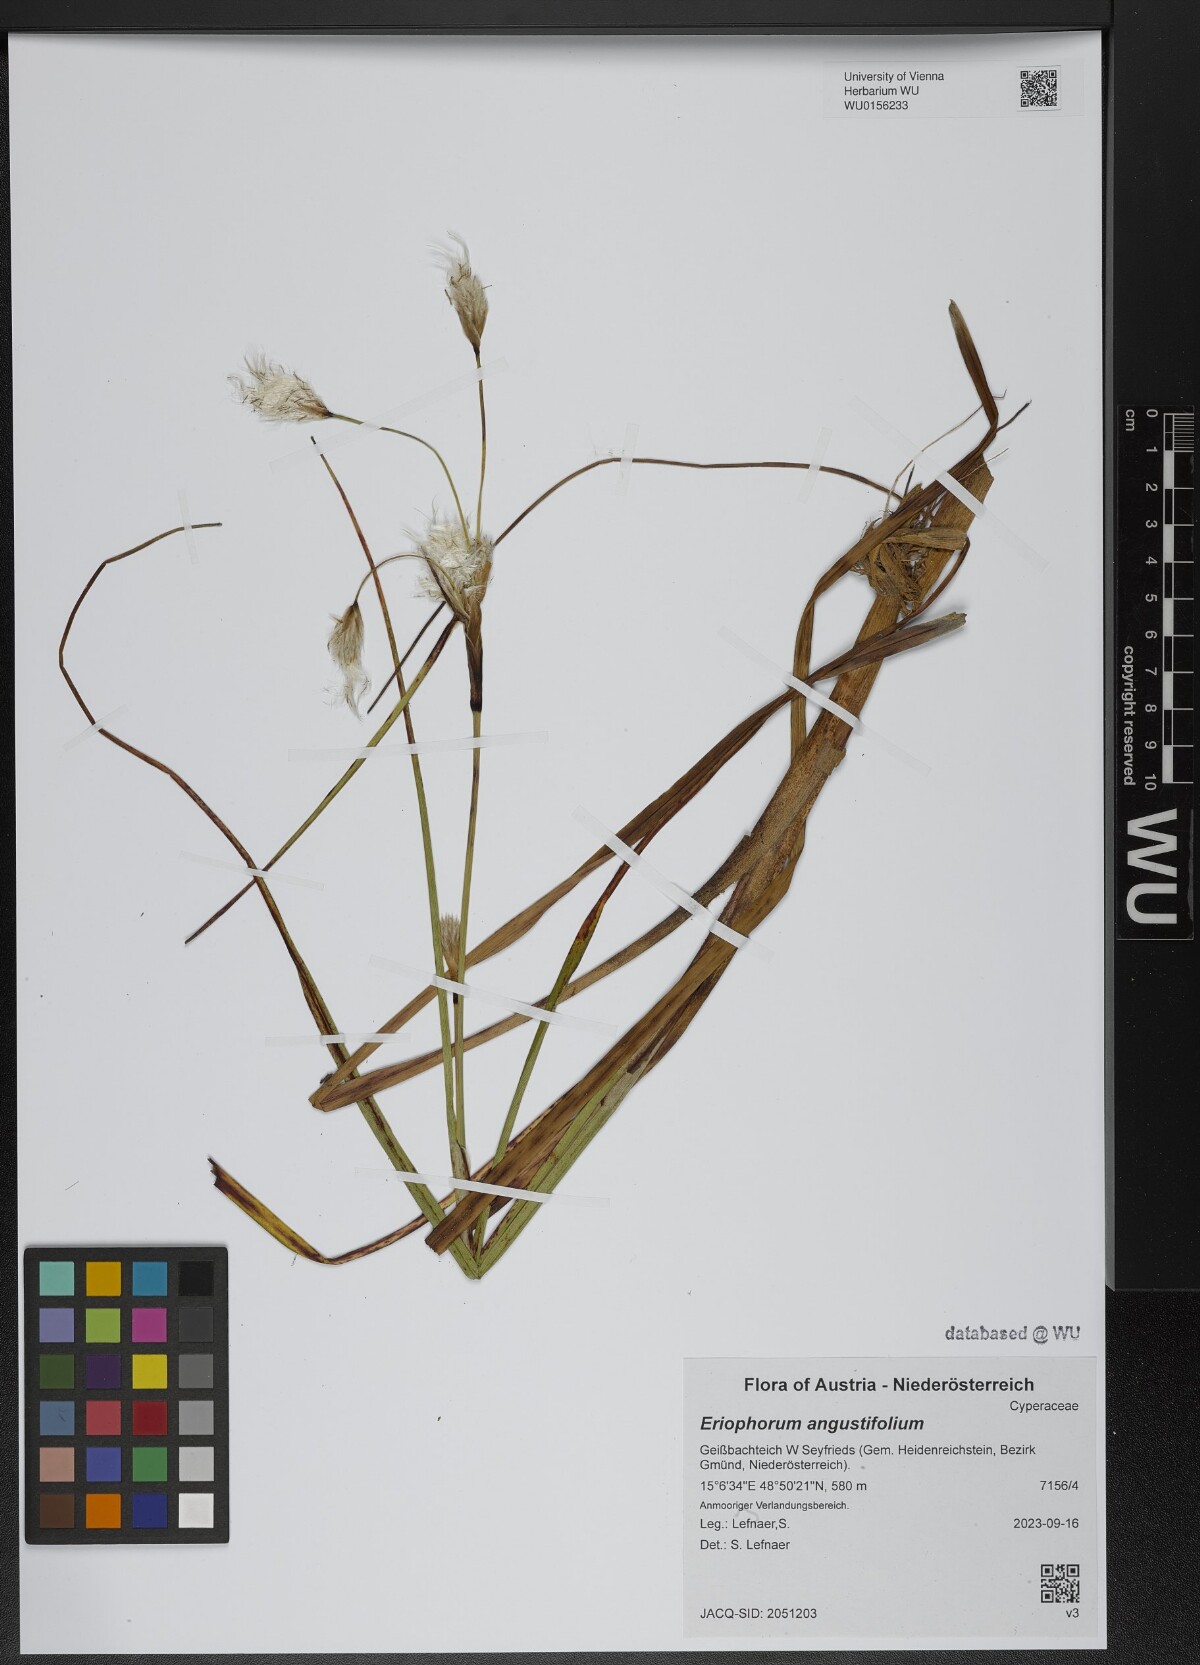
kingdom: Plantae
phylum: Tracheophyta
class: Liliopsida
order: Poales
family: Cyperaceae
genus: Eriophorum
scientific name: Eriophorum angustifolium
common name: Common cottongrass
